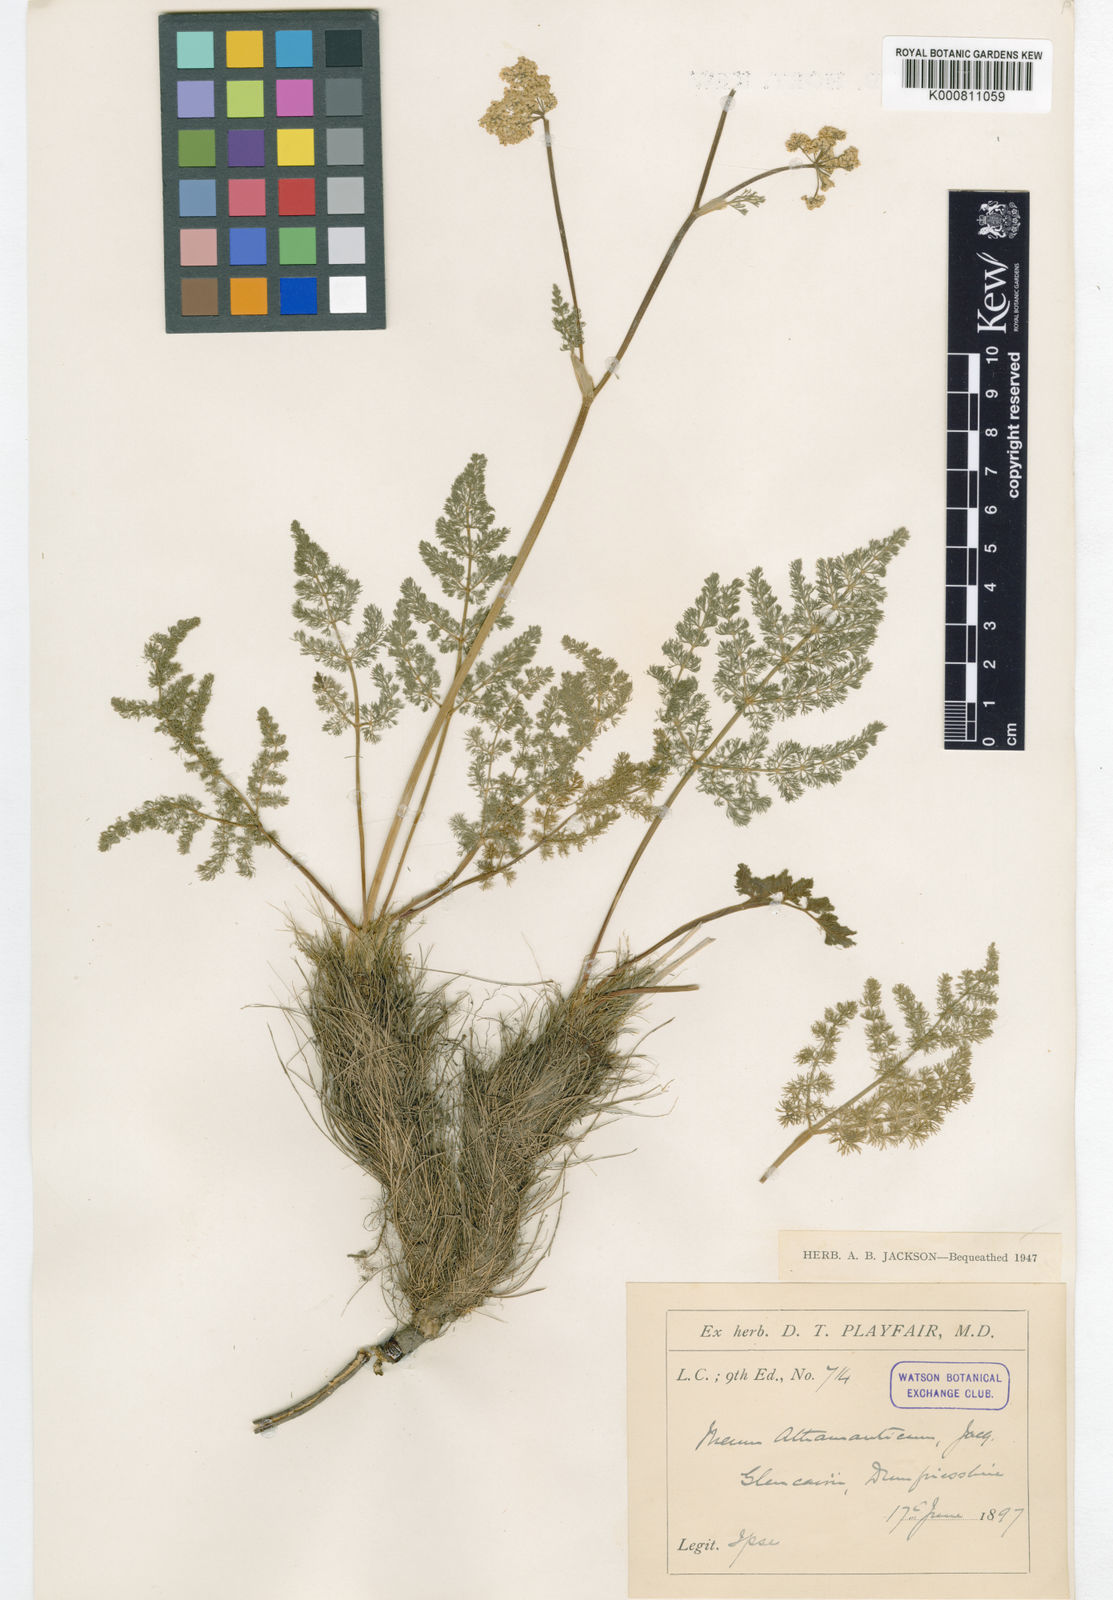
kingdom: Plantae
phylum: Tracheophyta
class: Magnoliopsida
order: Apiales
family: Apiaceae
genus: Meum
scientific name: Meum athamanticum
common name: Spignel
